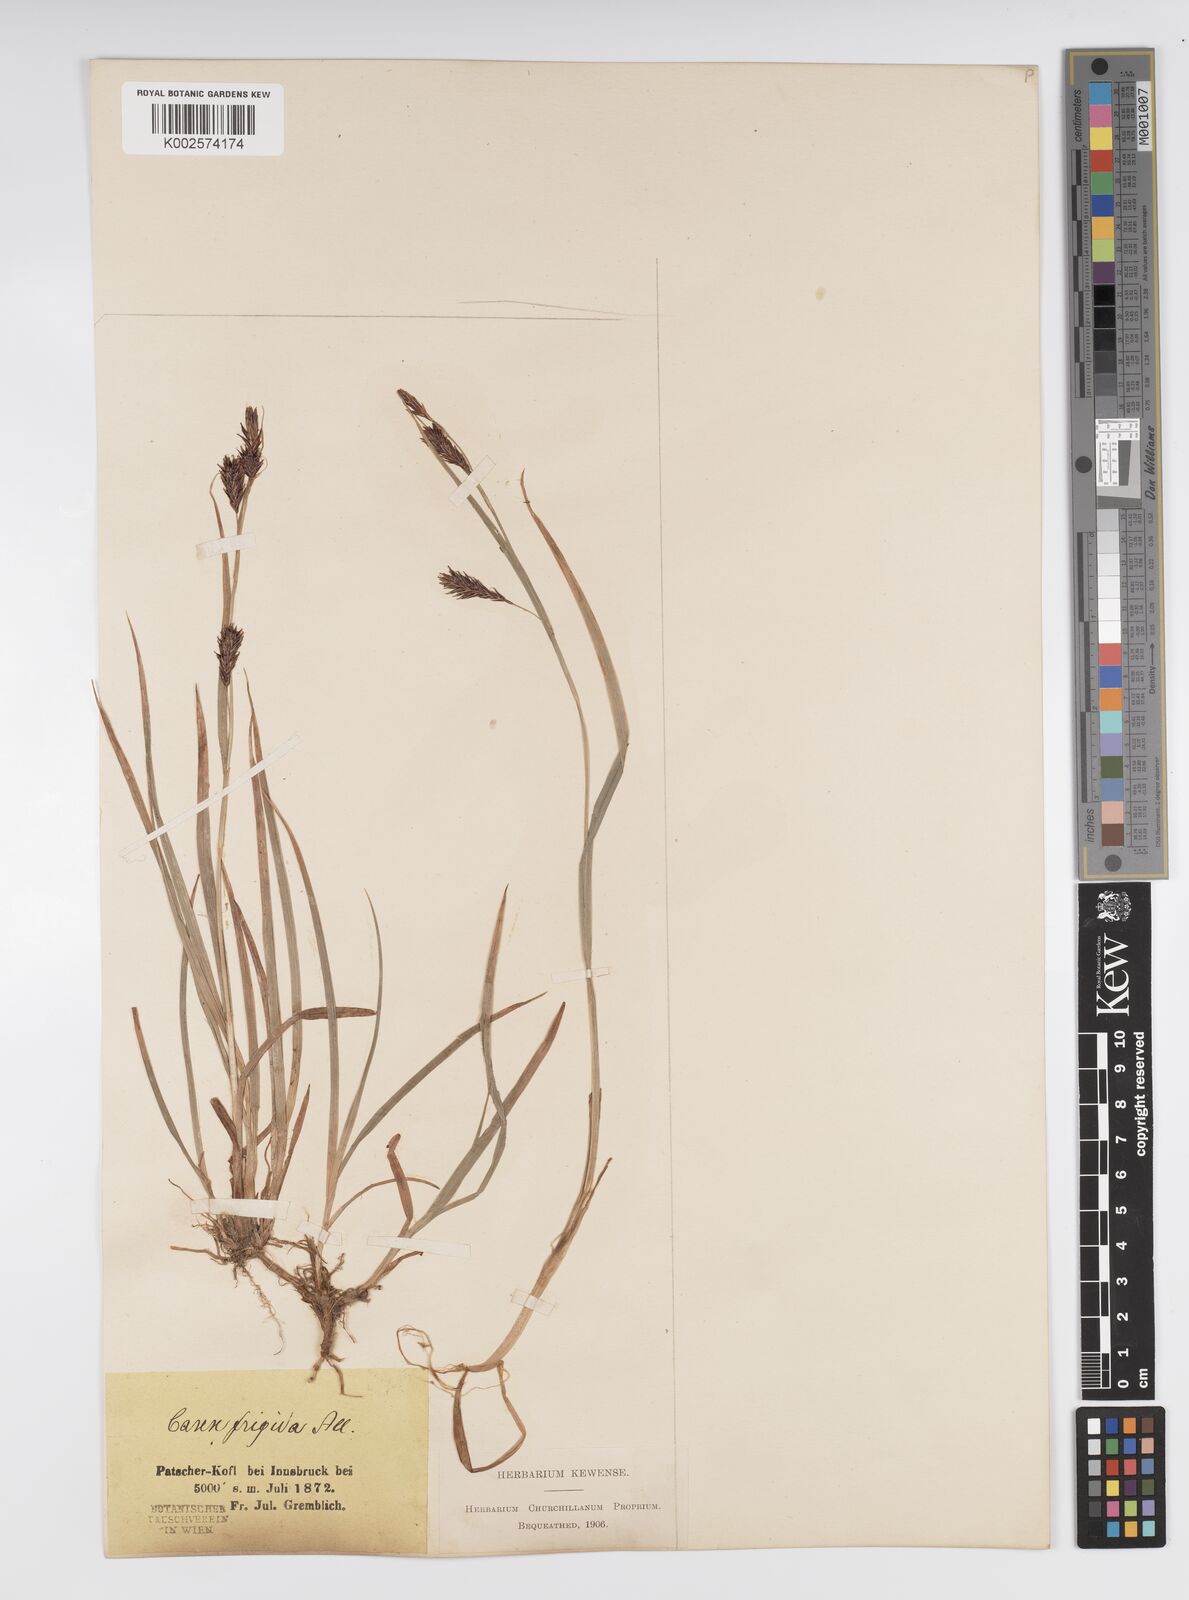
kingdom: Plantae
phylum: Tracheophyta
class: Liliopsida
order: Poales
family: Cyperaceae
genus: Carex
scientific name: Carex frigida
